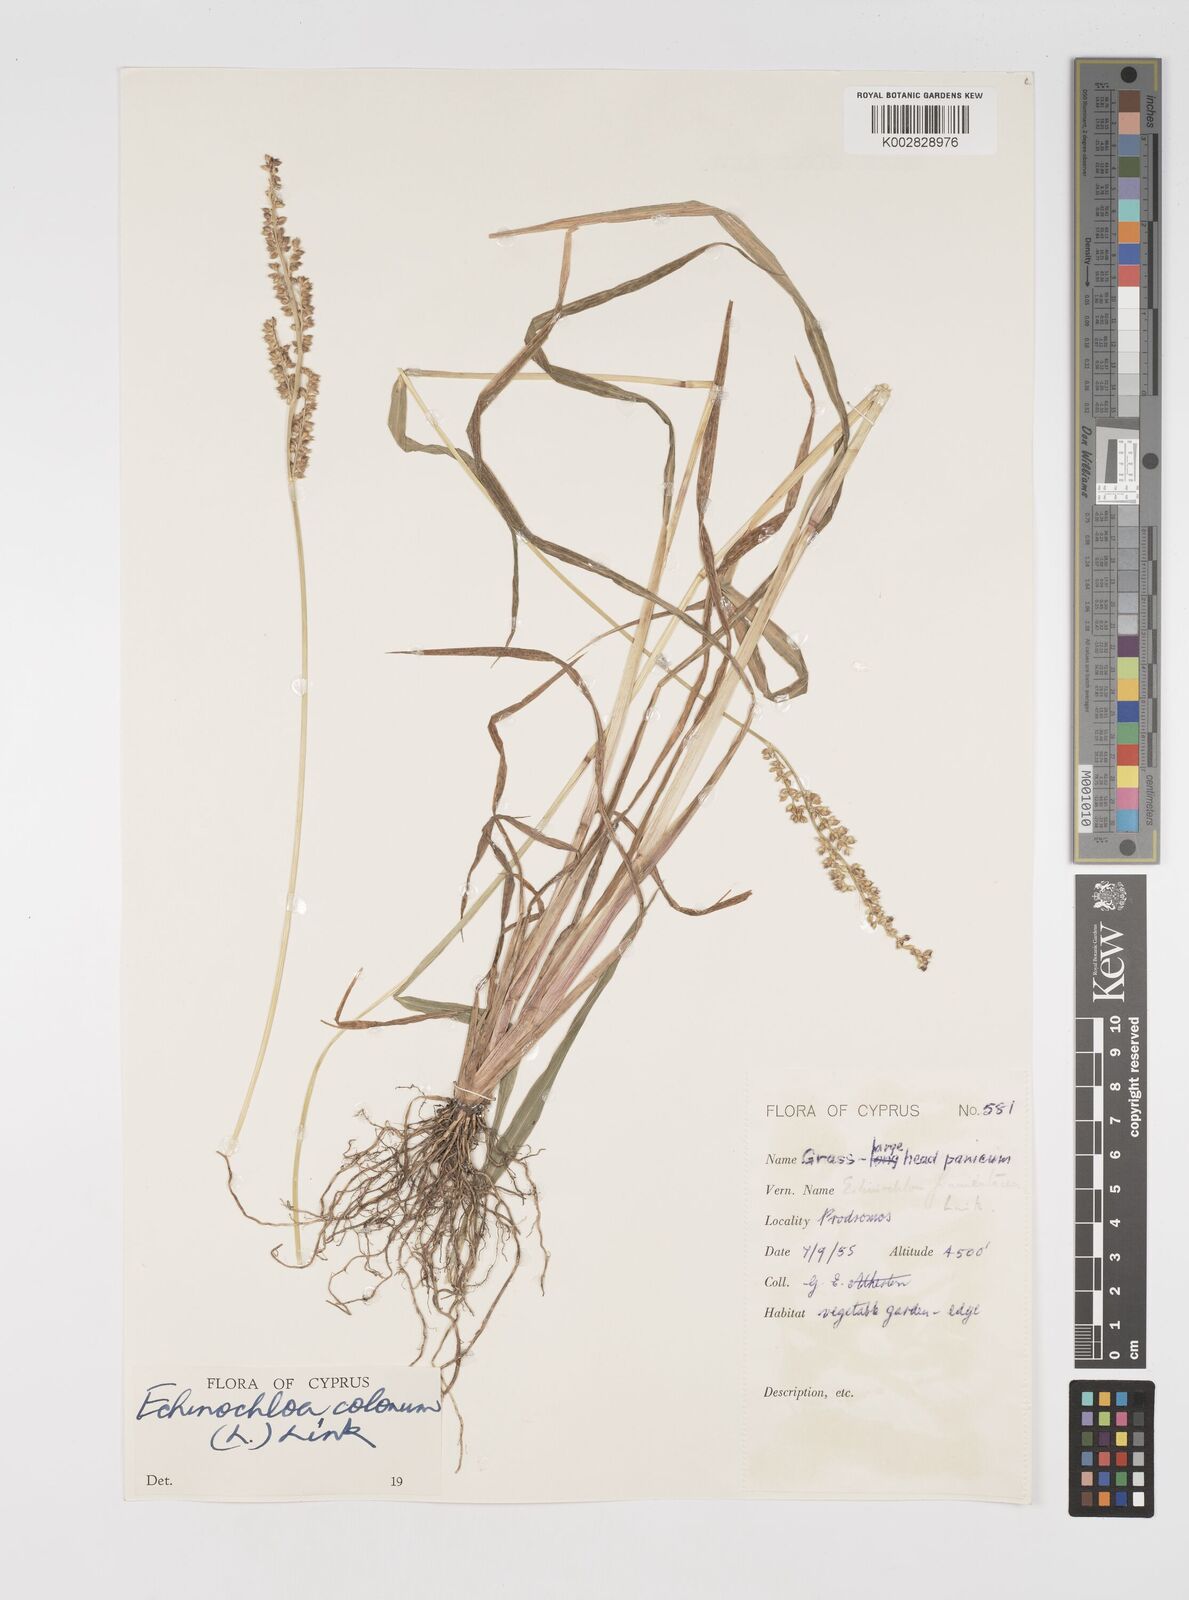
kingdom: Plantae
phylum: Tracheophyta
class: Liliopsida
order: Poales
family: Poaceae
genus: Echinochloa
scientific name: Echinochloa colonum
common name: Jungle rice
